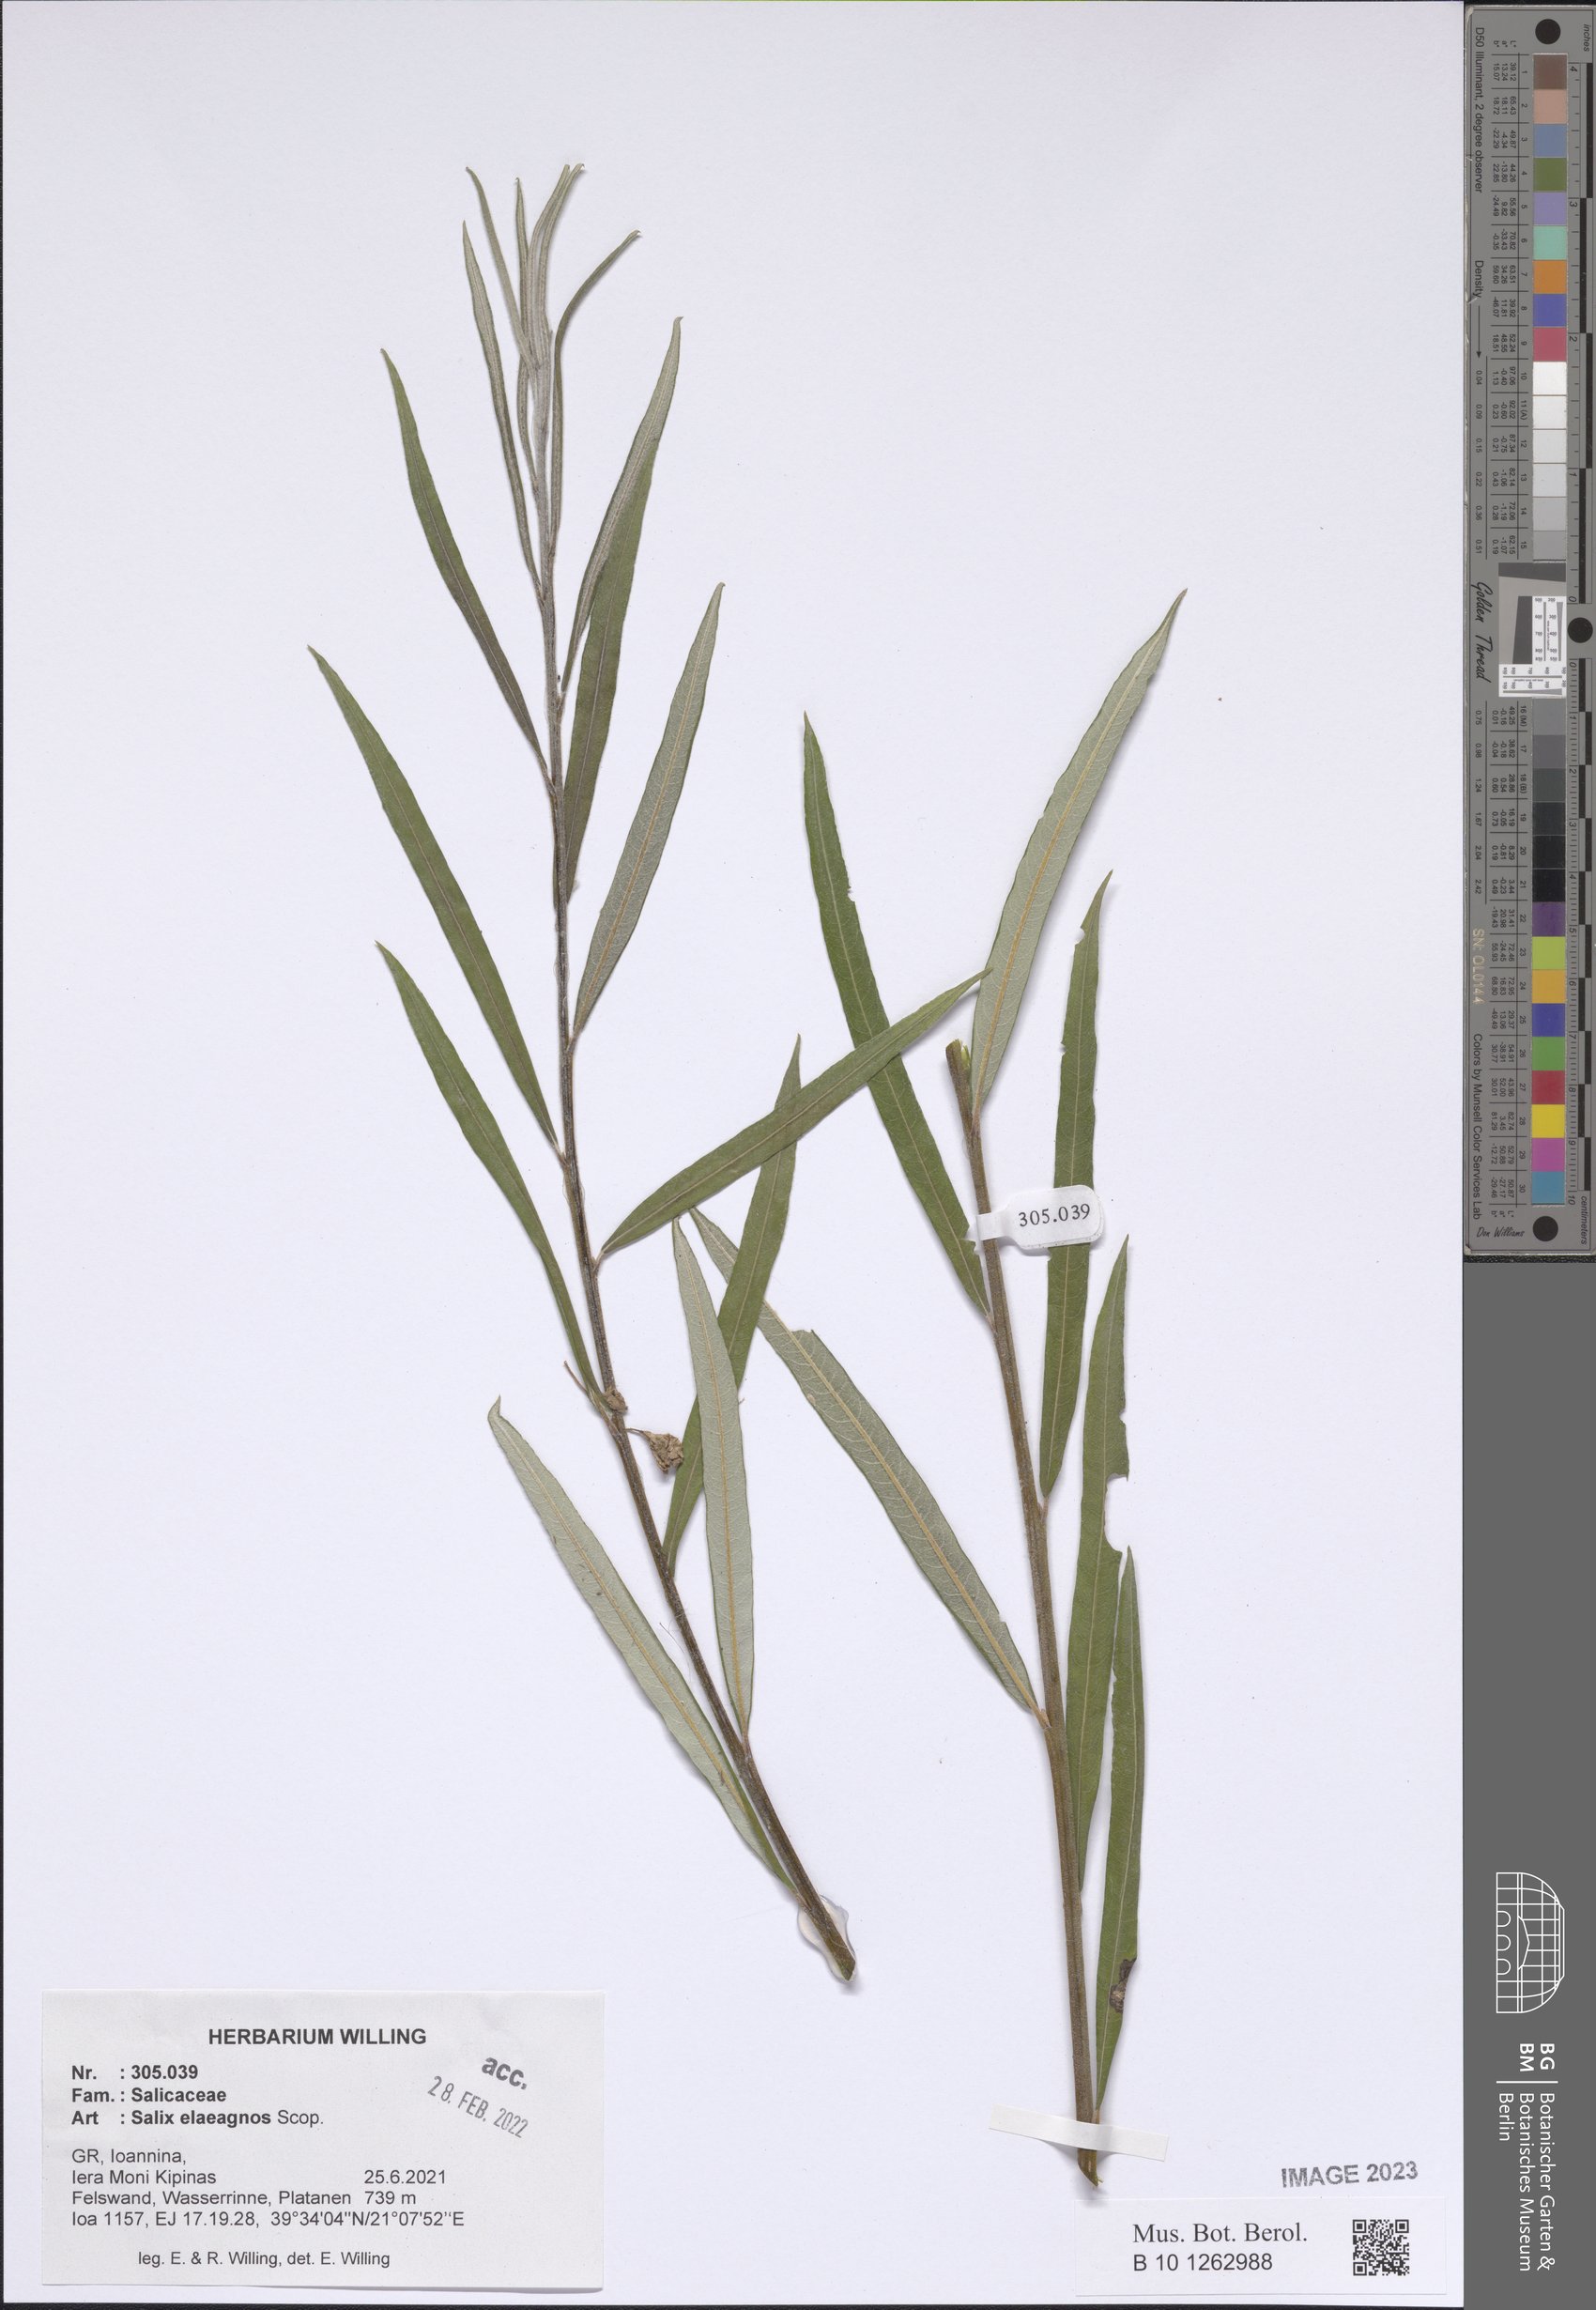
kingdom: Plantae
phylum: Tracheophyta
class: Magnoliopsida
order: Malpighiales
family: Salicaceae
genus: Salix
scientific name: Salix eleagnos
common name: Elaeagnus willow
